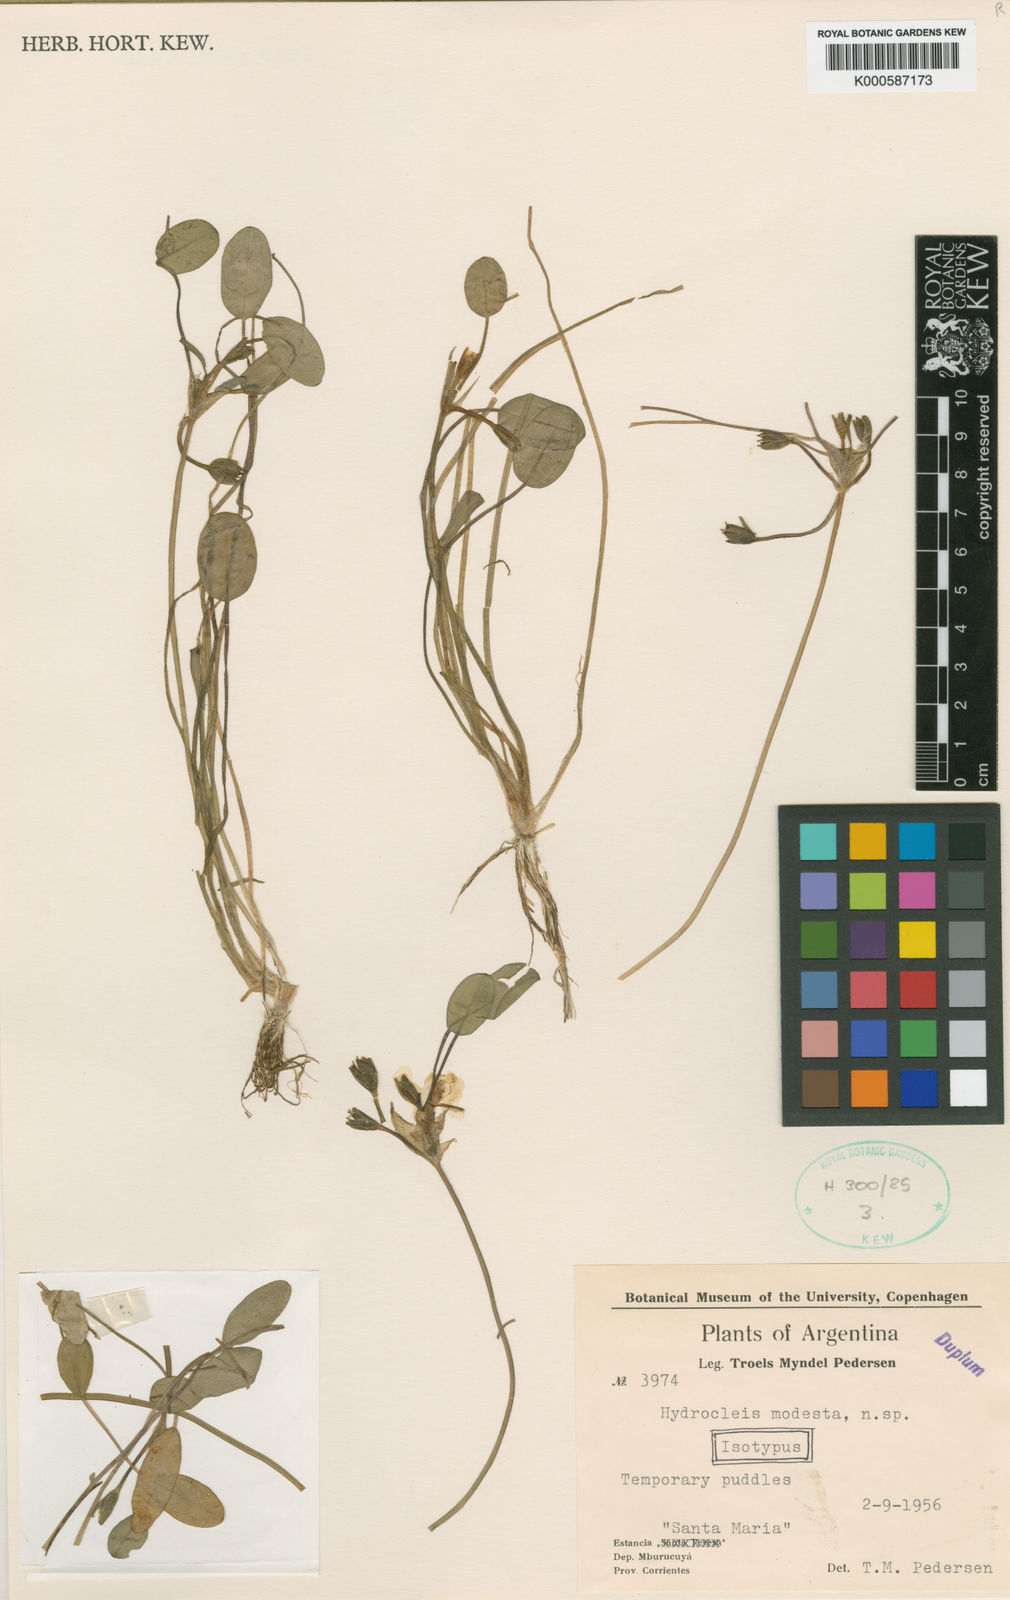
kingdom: Plantae
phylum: Tracheophyta
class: Liliopsida
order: Alismatales
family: Alismataceae
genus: Hydrocleys
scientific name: Hydrocleys modesta
